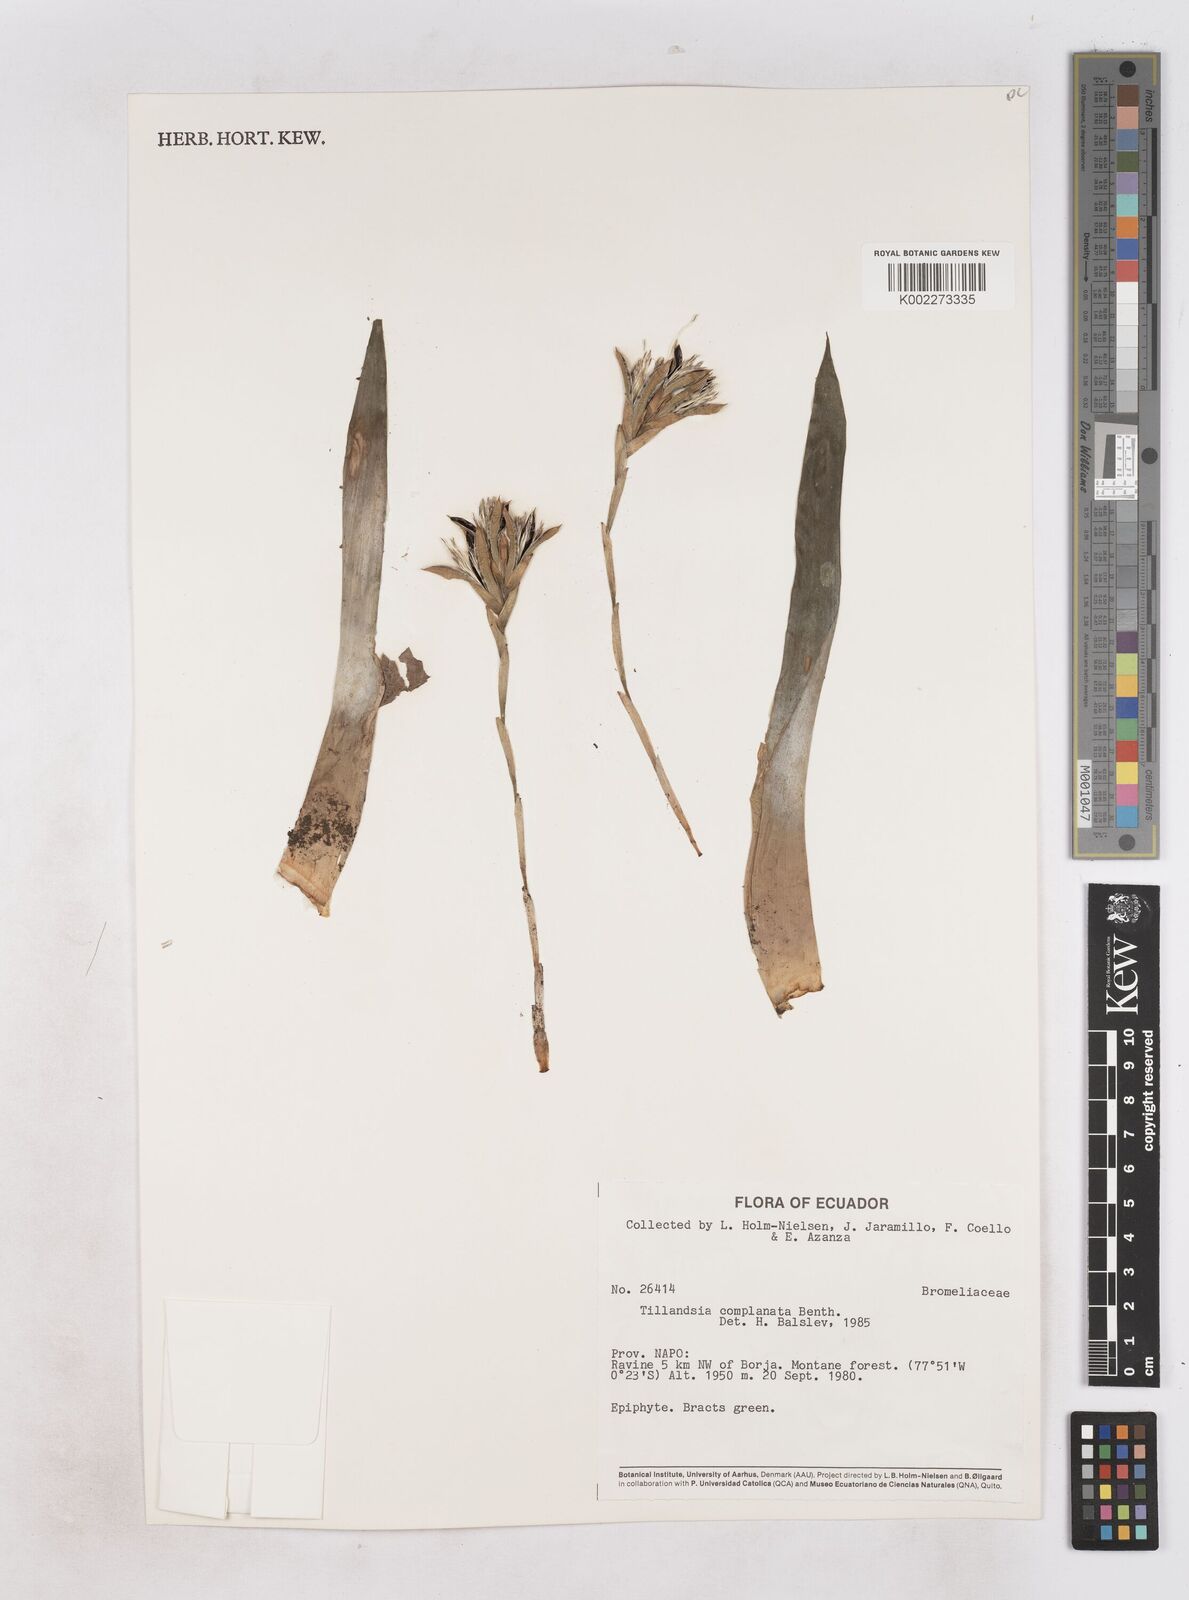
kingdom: Plantae
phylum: Tracheophyta
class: Liliopsida
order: Poales
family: Bromeliaceae
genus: Tillandsia
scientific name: Tillandsia complanata
